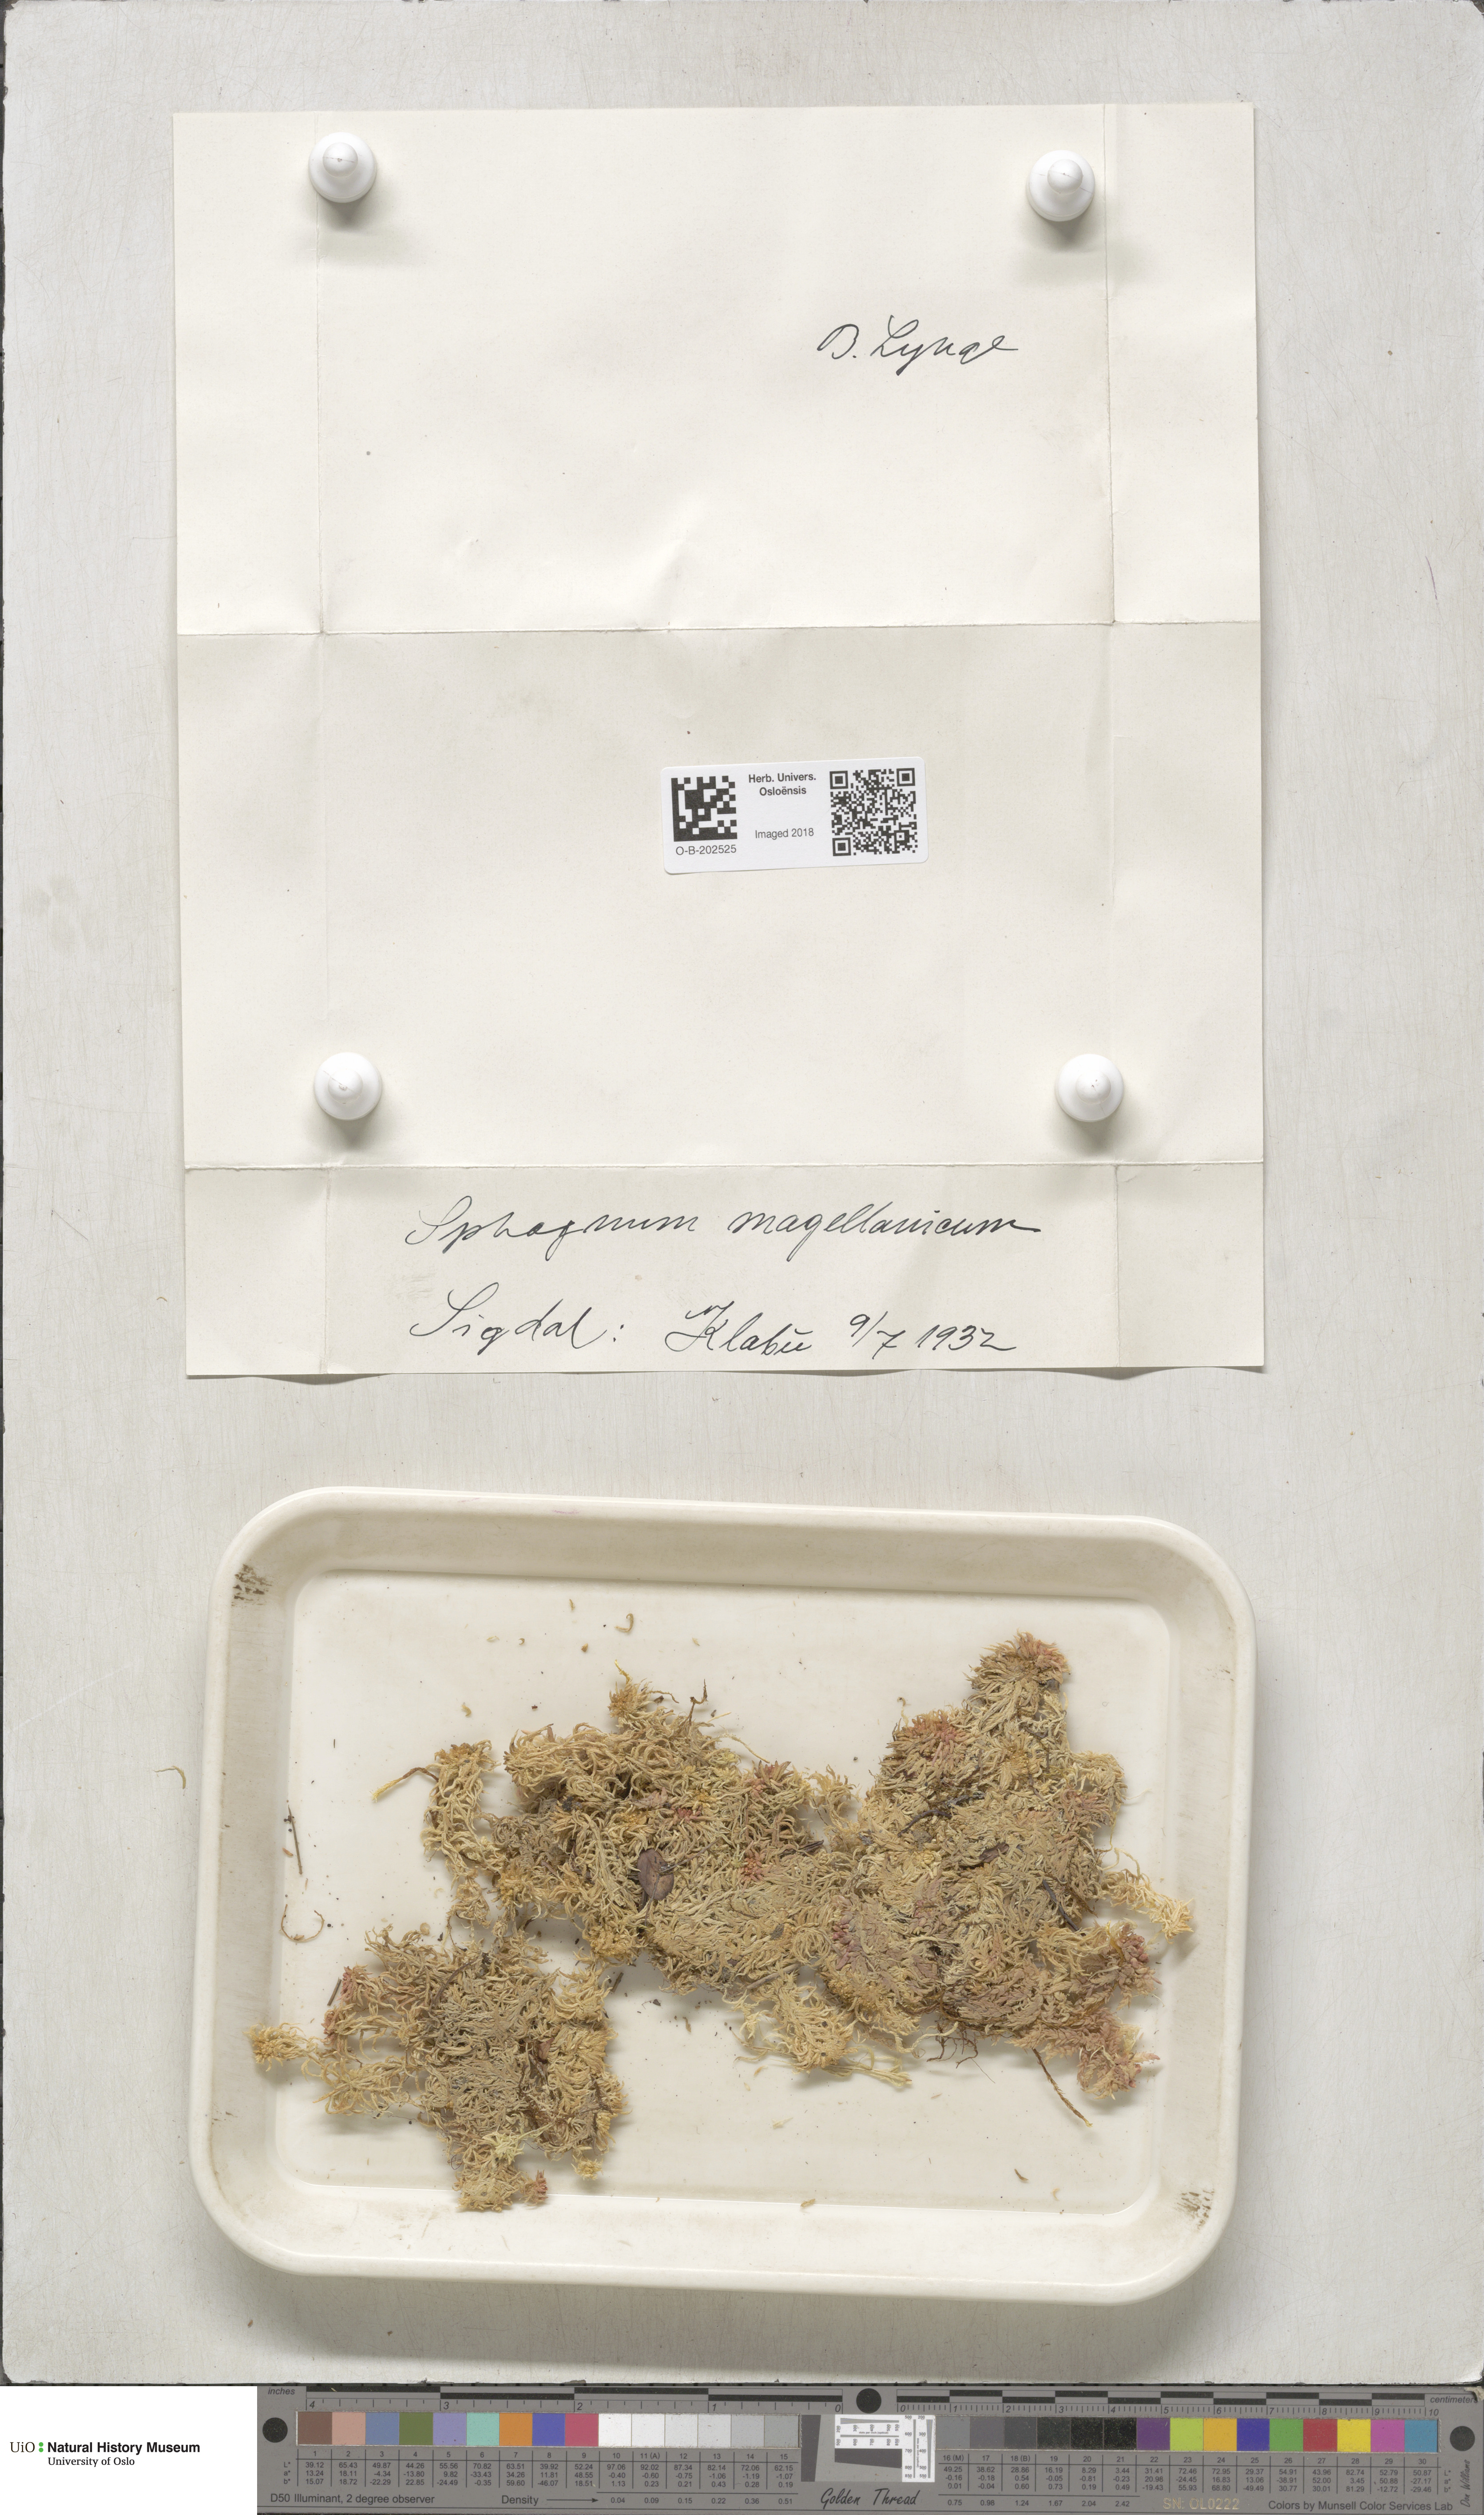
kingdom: Plantae
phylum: Bryophyta
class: Sphagnopsida
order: Sphagnales
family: Sphagnaceae
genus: Sphagnum
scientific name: Sphagnum magellanicum
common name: Magellan's peat moss
